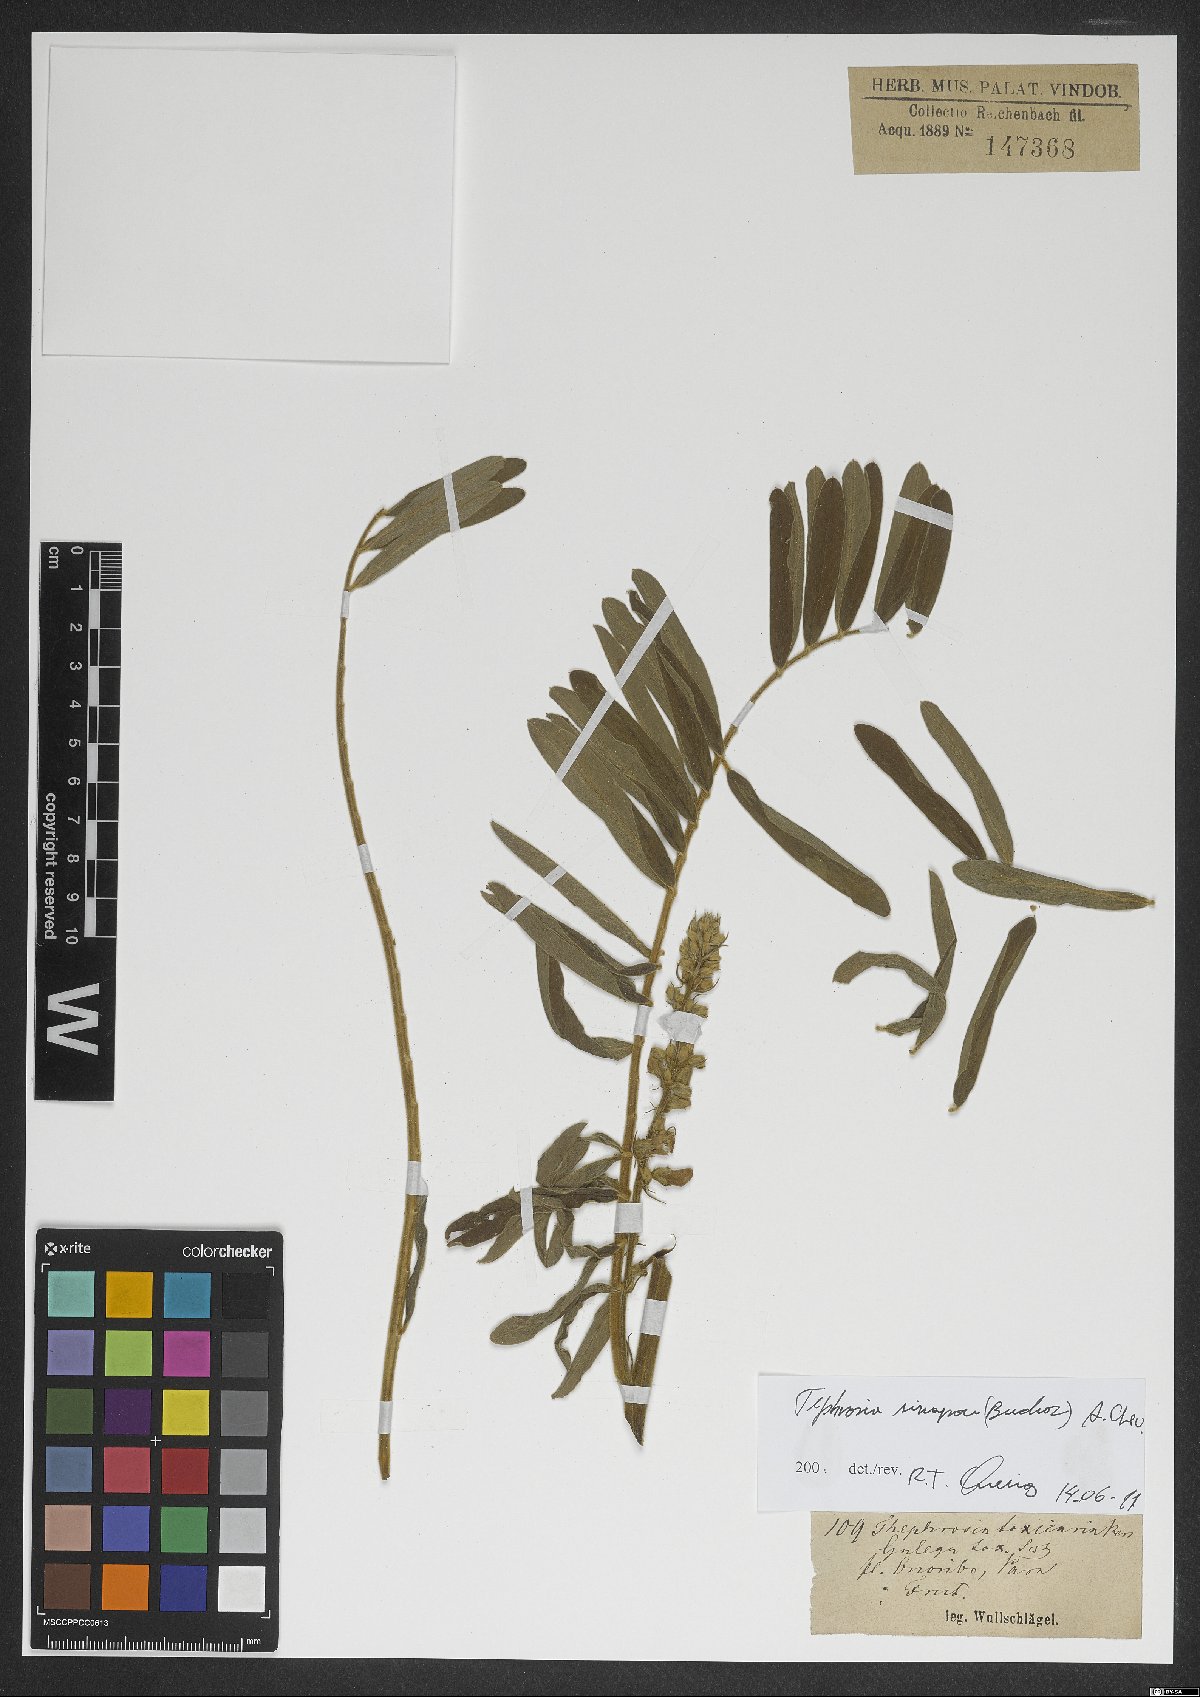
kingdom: Plantae
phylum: Tracheophyta
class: Magnoliopsida
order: Fabales
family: Fabaceae
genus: Tephrosia
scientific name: Tephrosia sinapou
